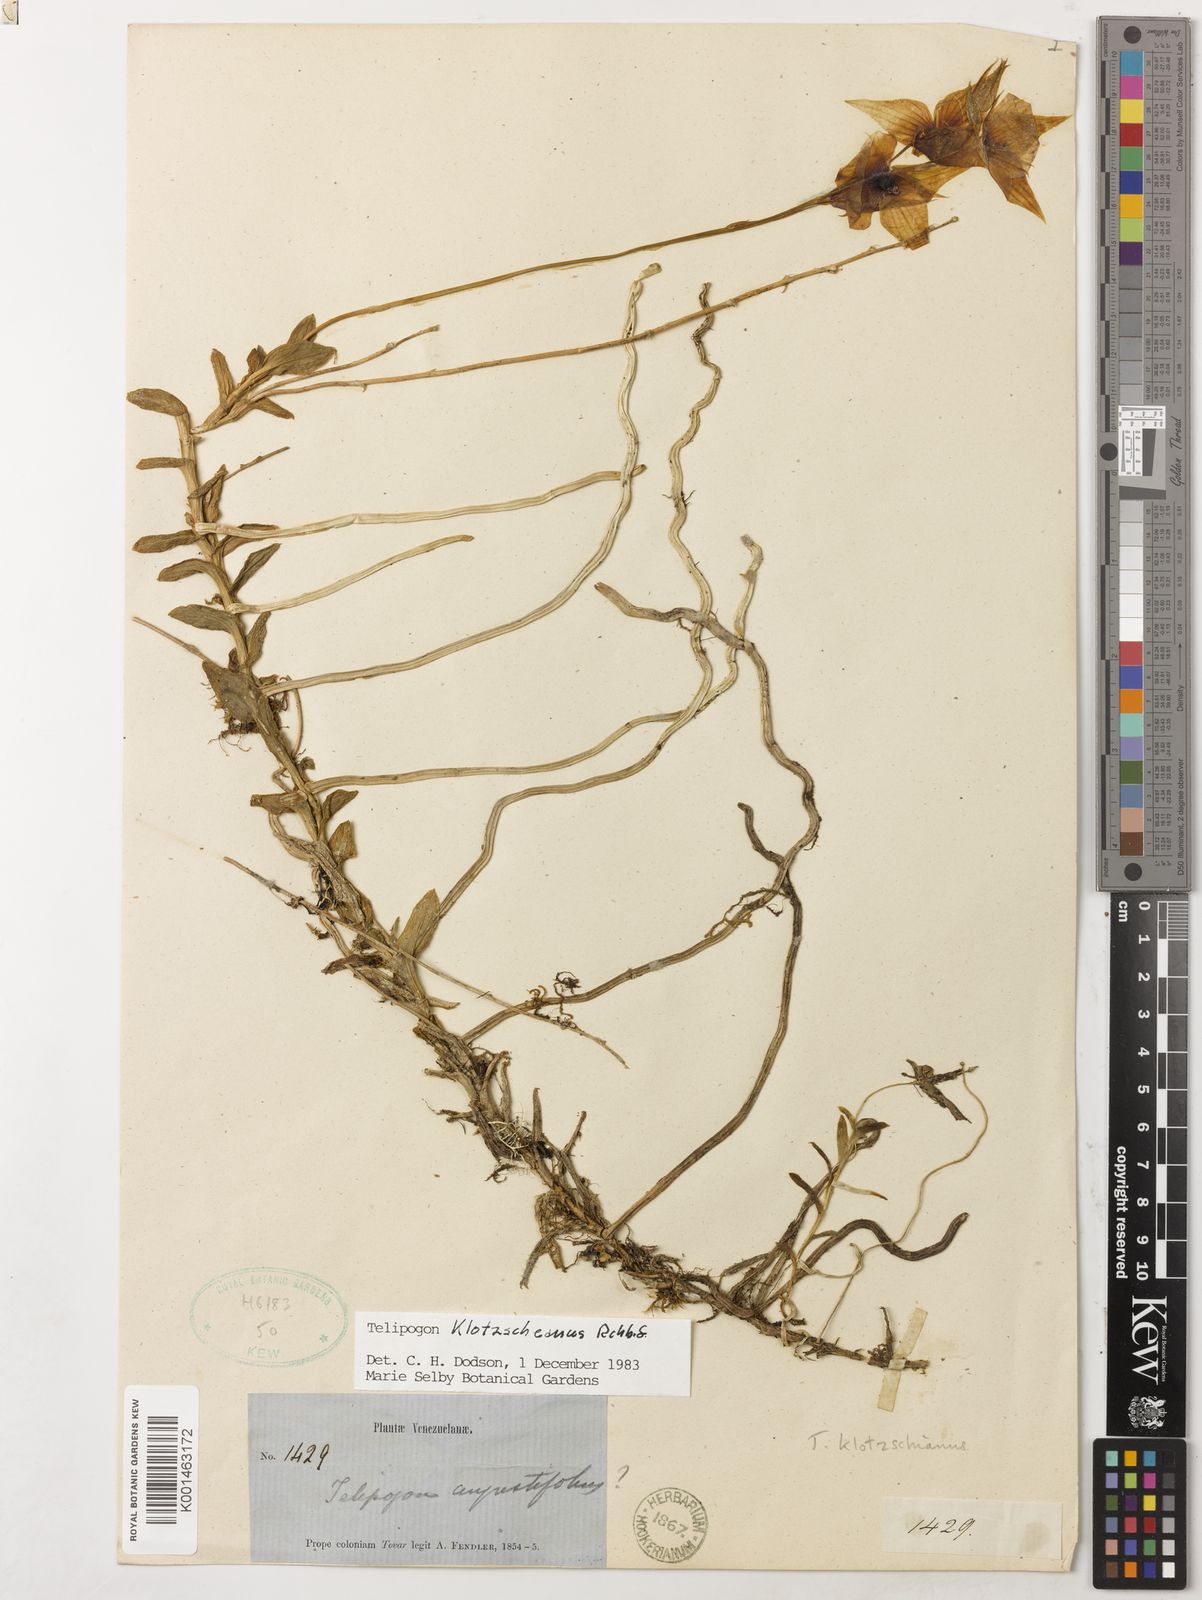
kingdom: Plantae
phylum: Tracheophyta
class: Liliopsida
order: Asparagales
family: Orchidaceae
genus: Telipogon
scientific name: Telipogon klotzscheanus
